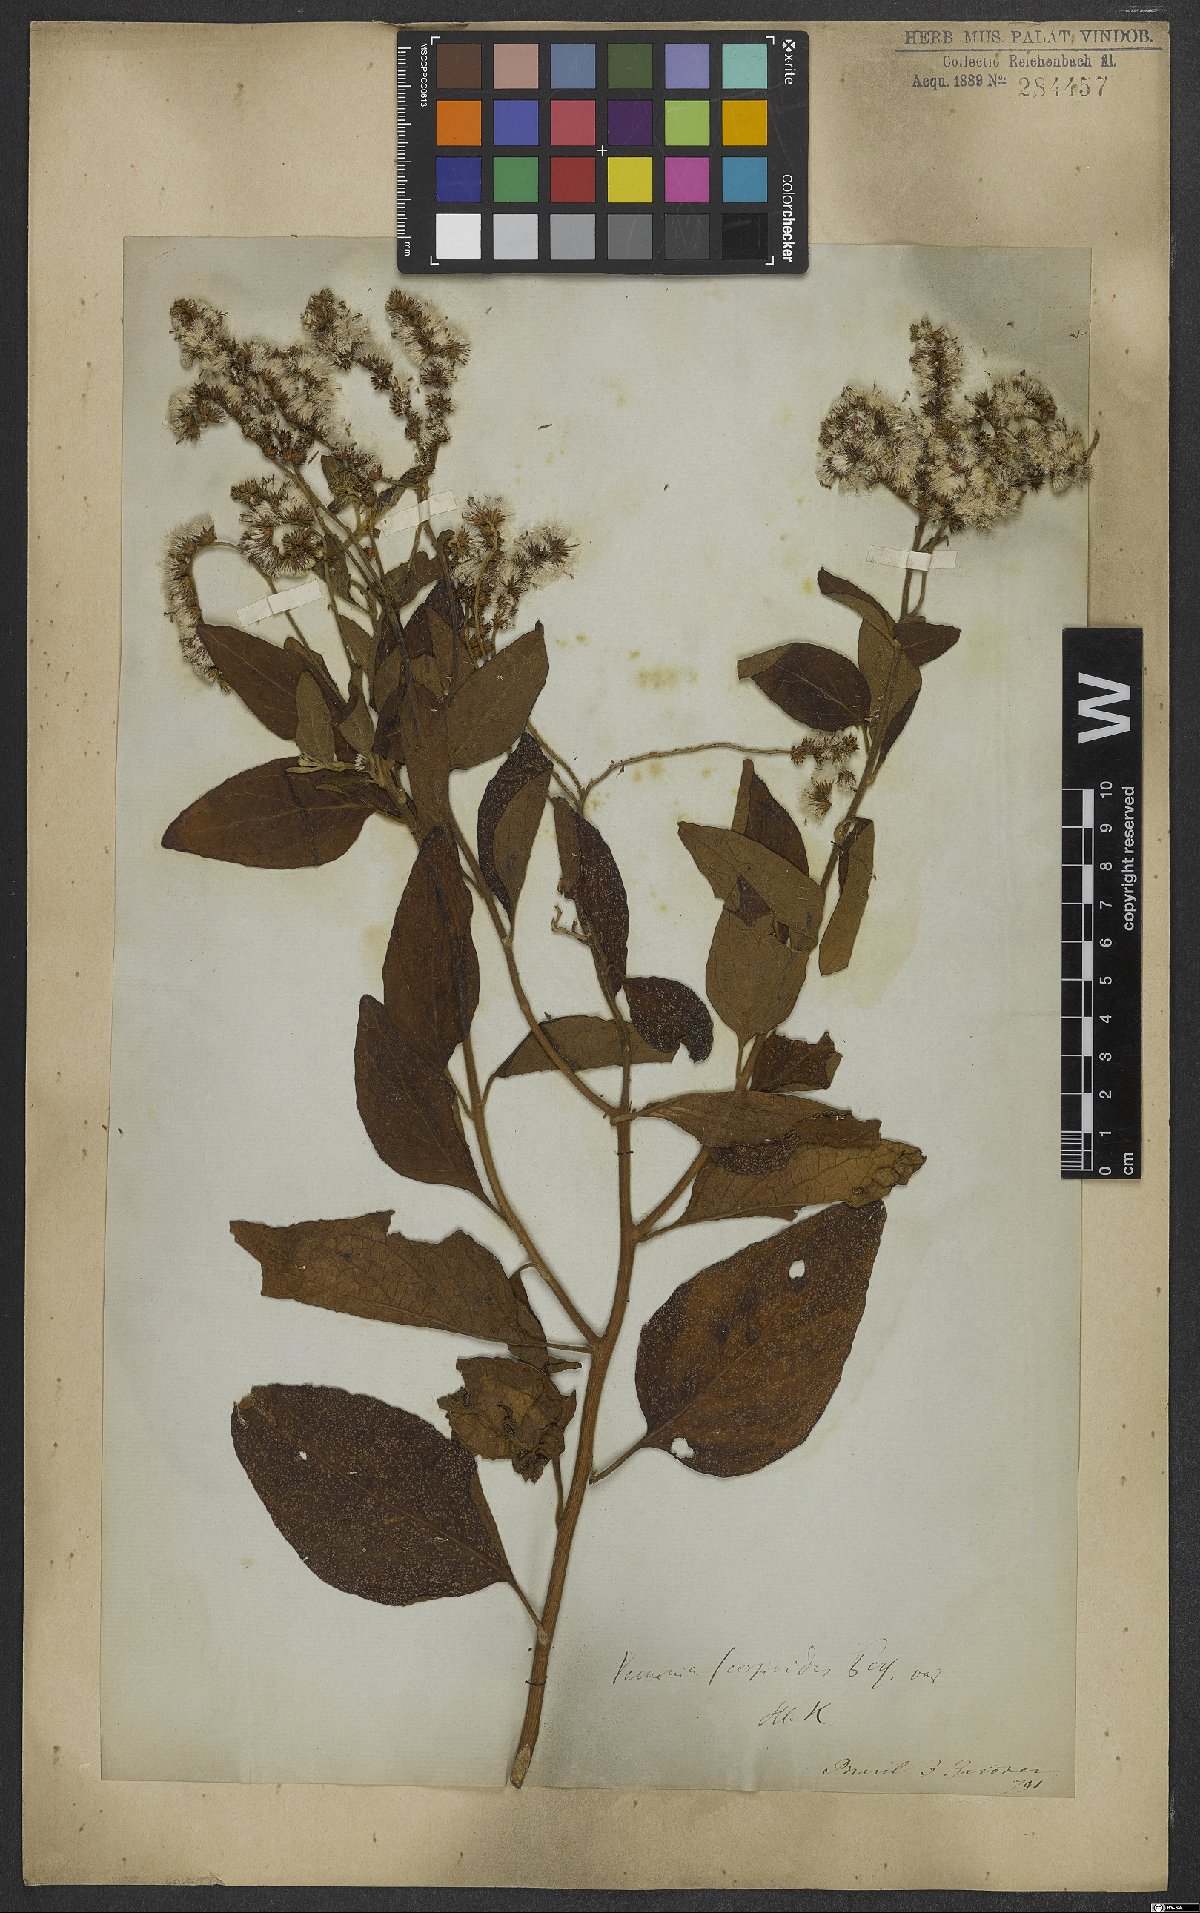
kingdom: Plantae
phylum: Tracheophyta
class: Magnoliopsida
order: Asterales
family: Asteraceae
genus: Cyrtocymura
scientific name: Cyrtocymura scorpioides
